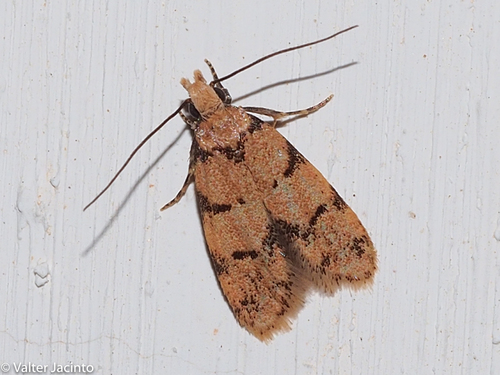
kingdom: Animalia
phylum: Arthropoda
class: Insecta
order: Lepidoptera
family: Autostichidae
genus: Symmoca
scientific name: Symmoca revoluta
